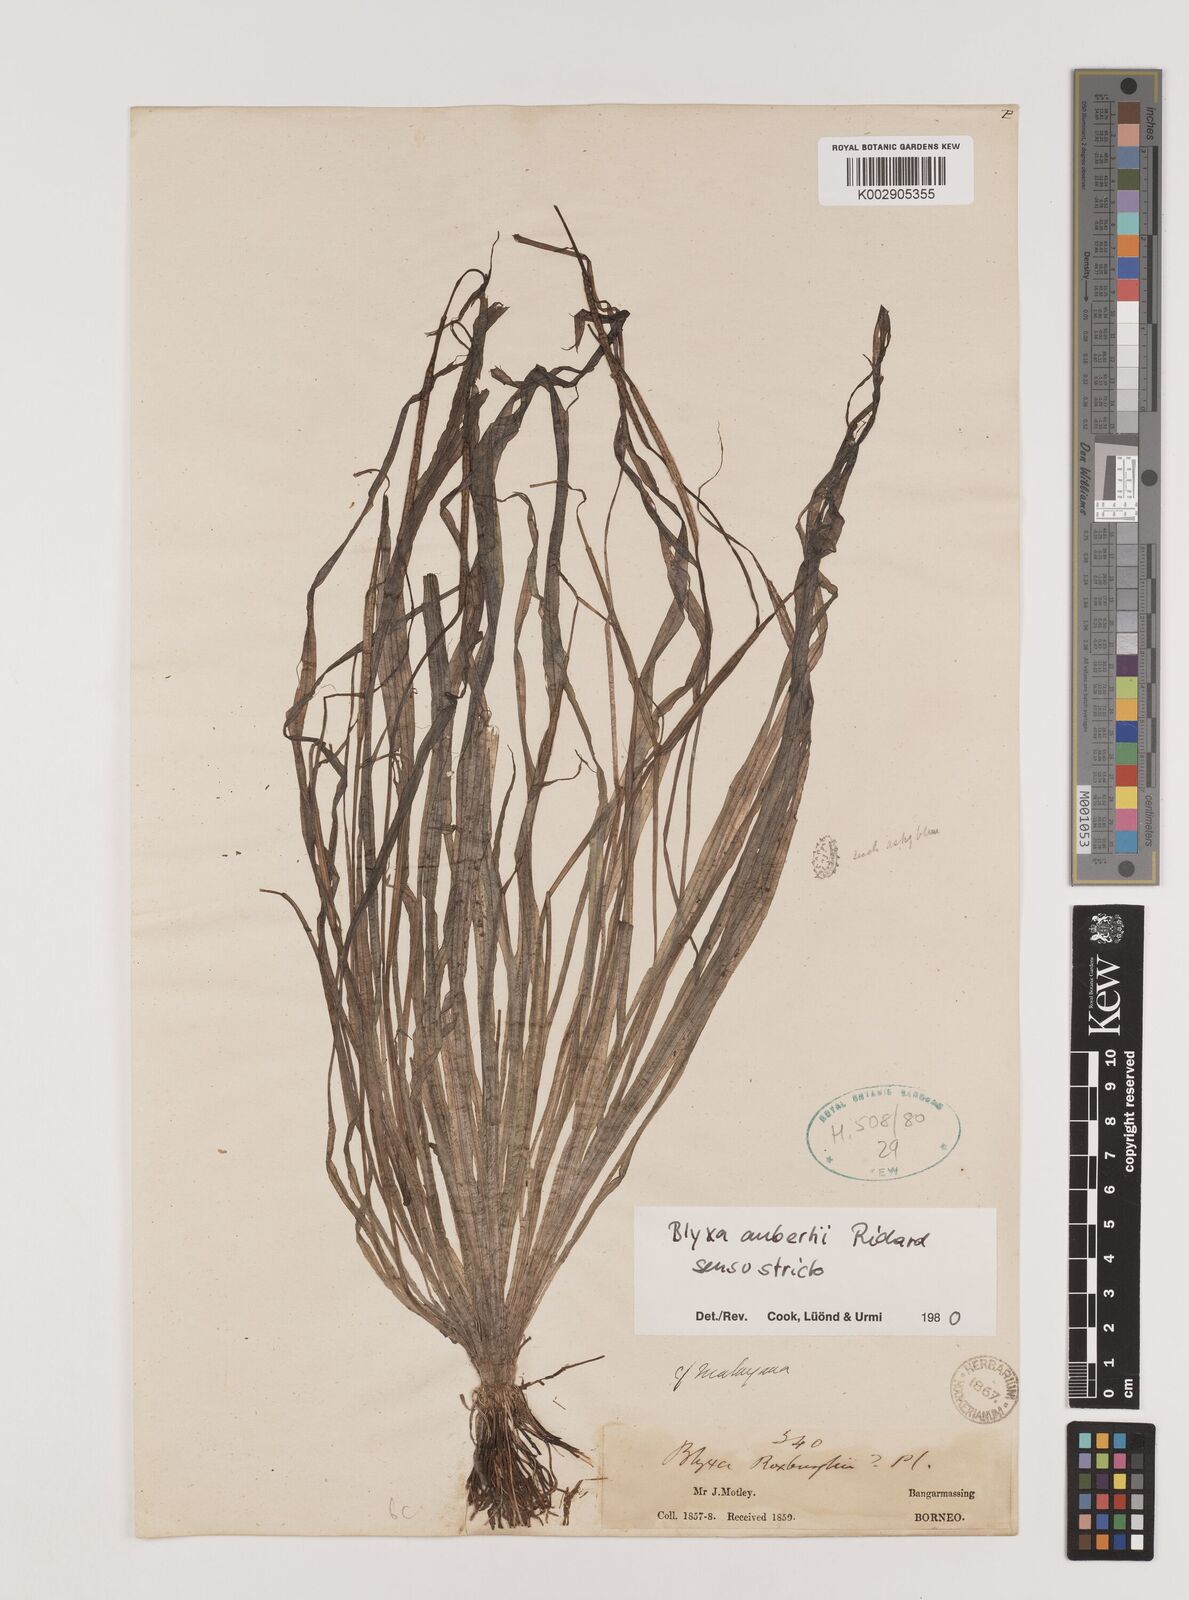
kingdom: Plantae
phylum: Tracheophyta
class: Liliopsida
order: Alismatales
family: Hydrocharitaceae
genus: Blyxa
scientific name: Blyxa aubertii
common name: Roundfruit blyxa
